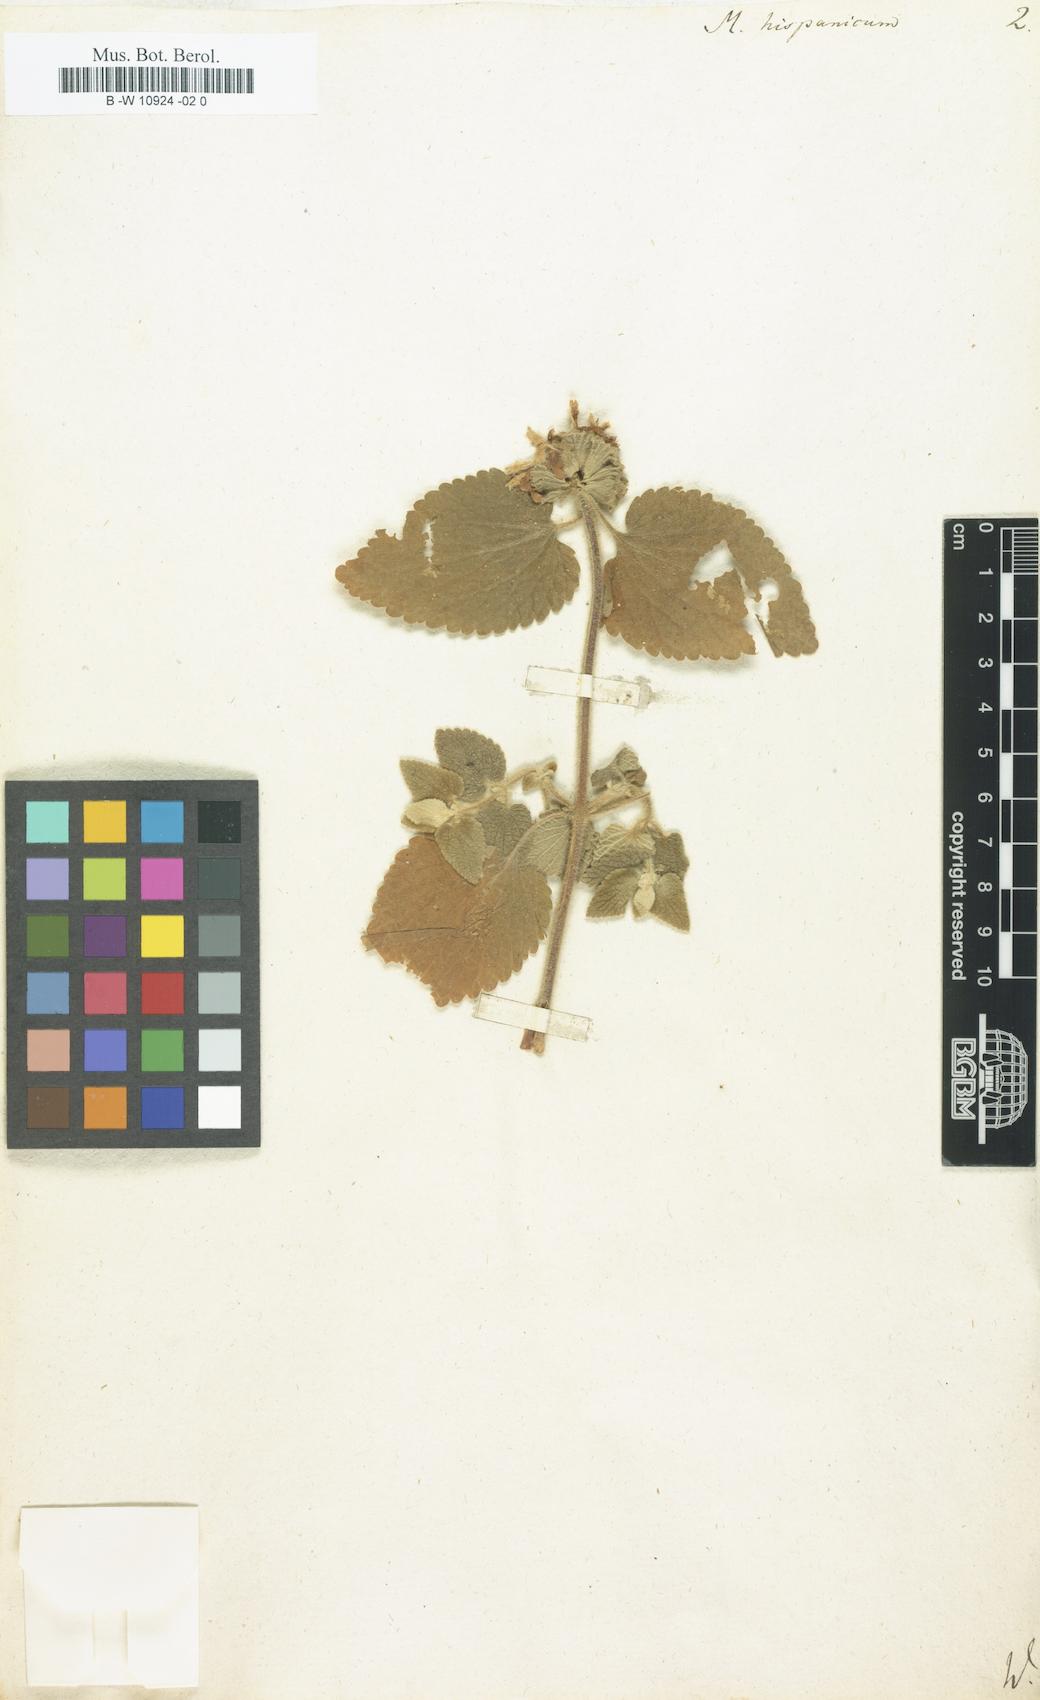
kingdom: Plantae
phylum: Tracheophyta
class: Magnoliopsida
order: Lamiales
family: Lamiaceae
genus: Marrubium
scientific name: Marrubium hispanicum
